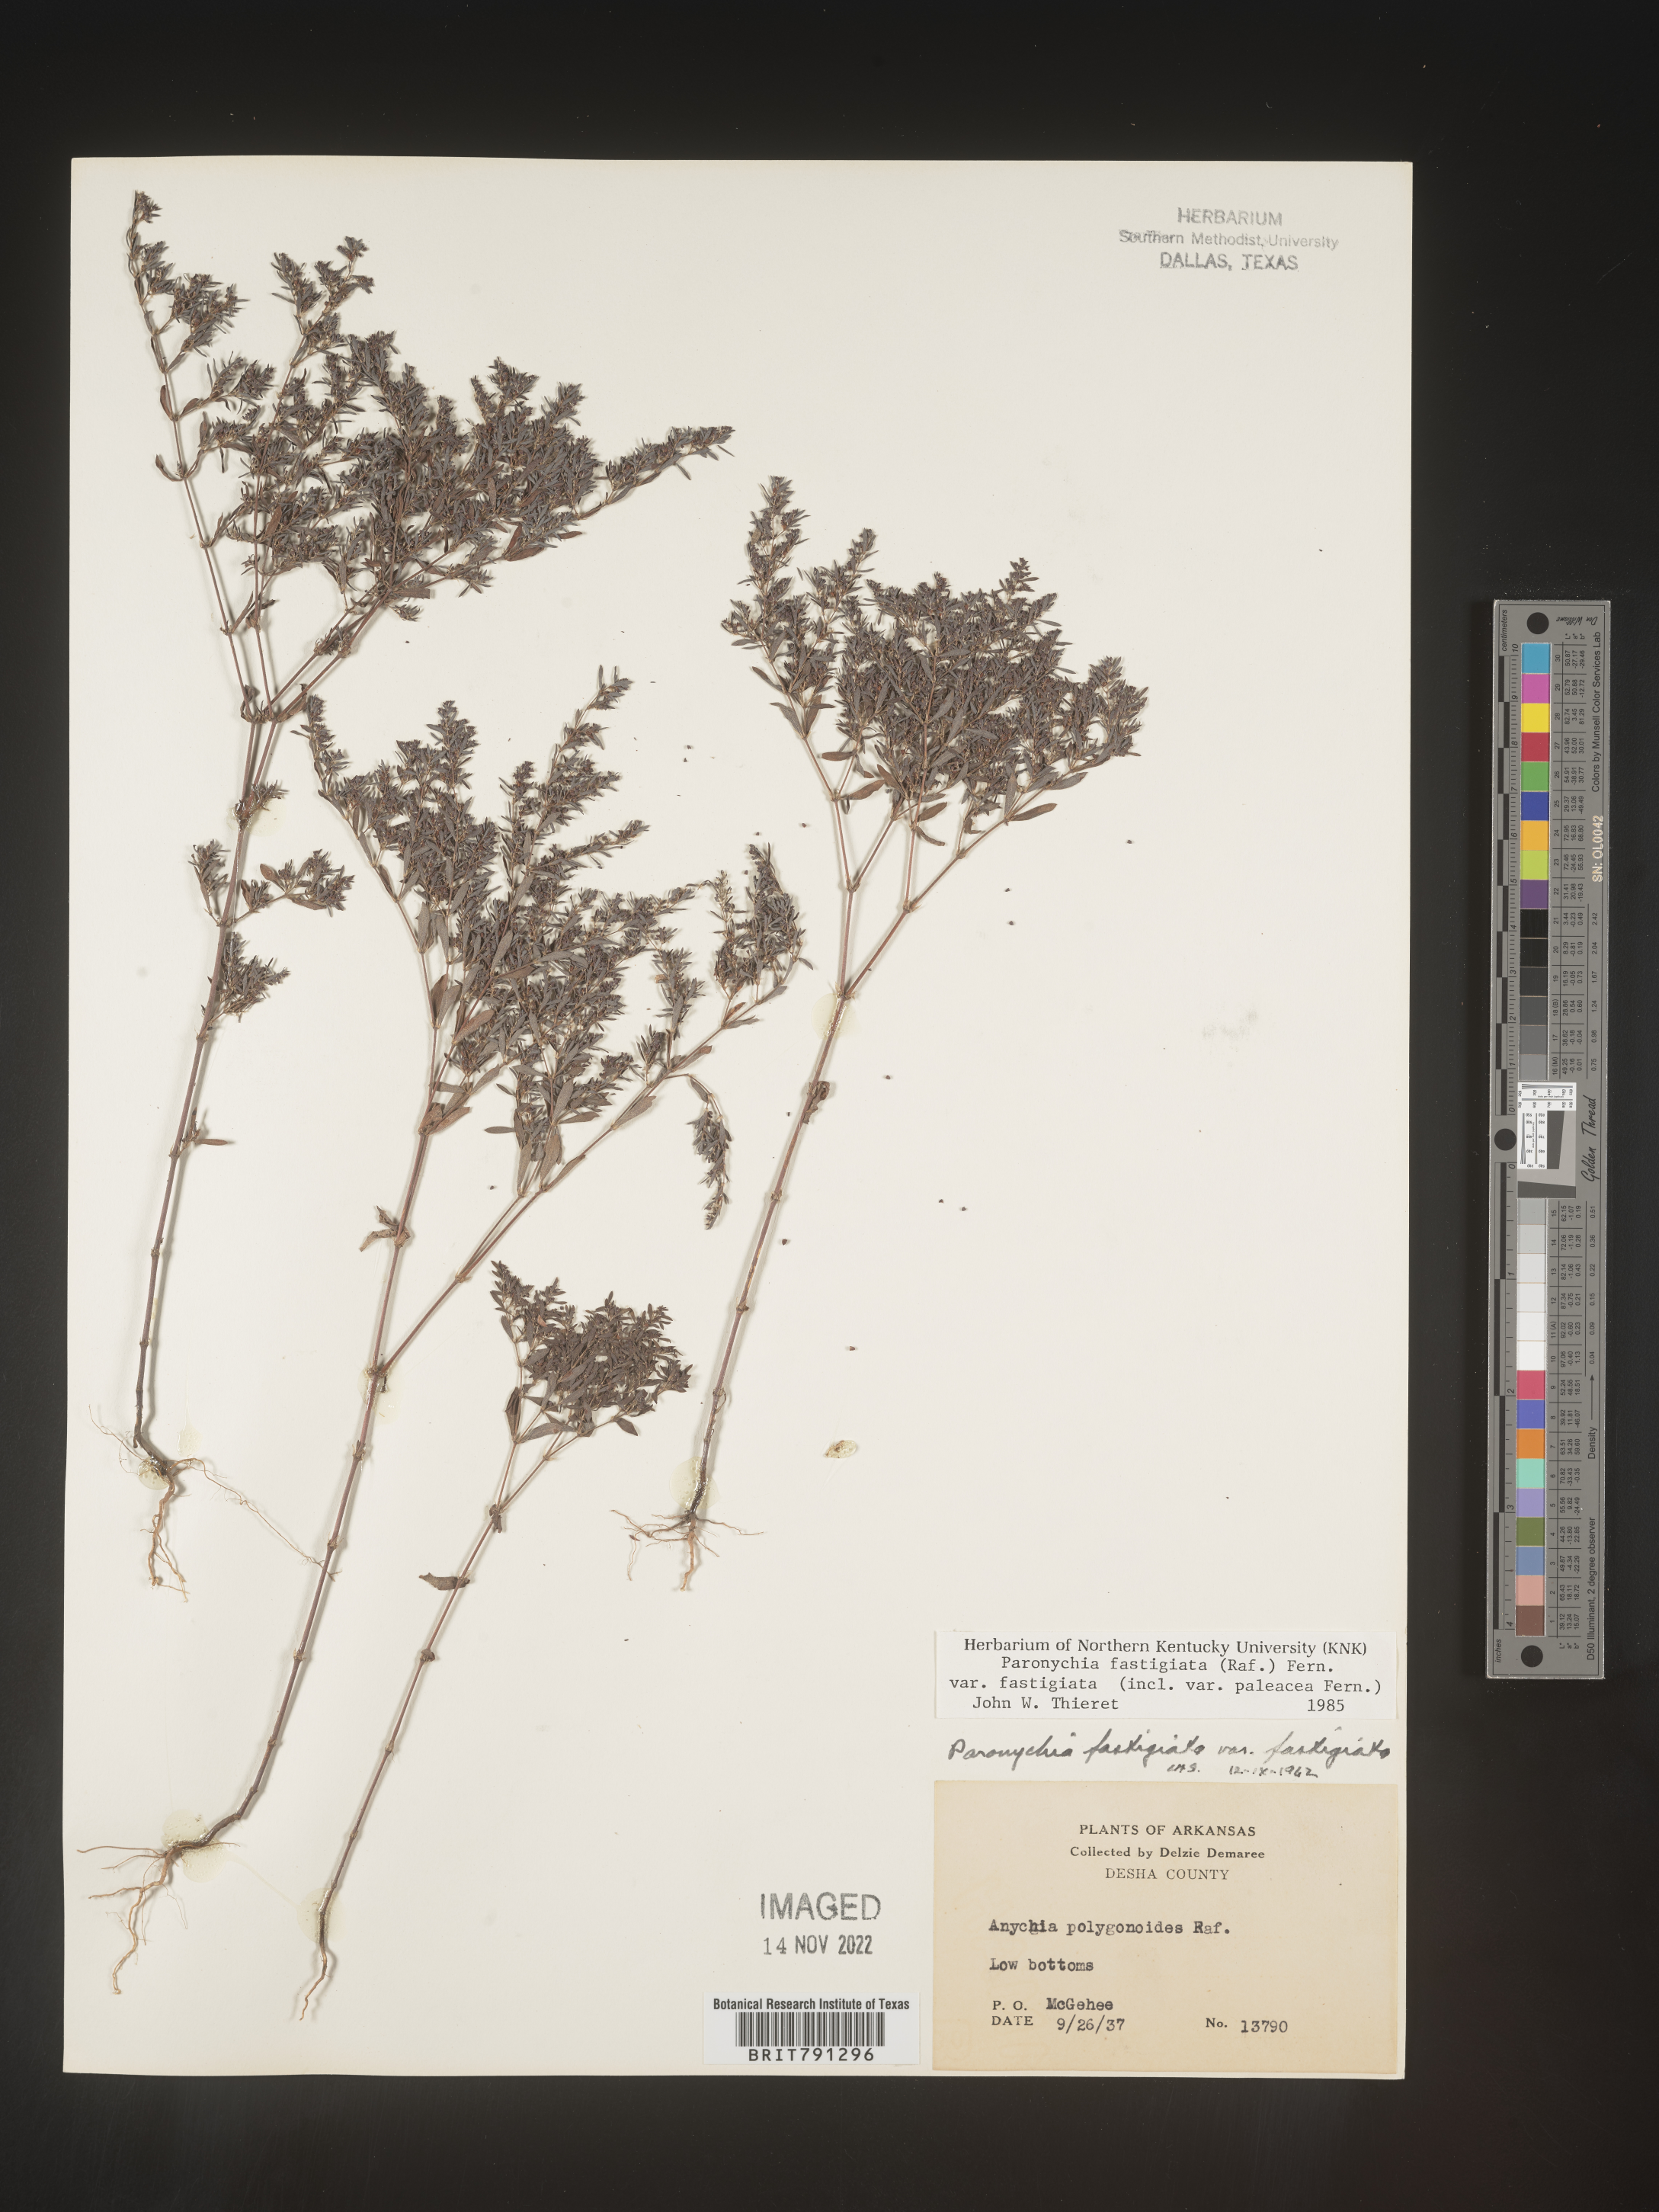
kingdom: Plantae
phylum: Tracheophyta
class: Magnoliopsida
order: Caryophyllales
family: Caryophyllaceae
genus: Paronychia
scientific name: Paronychia fastigiata
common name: Branching forked whitlow-wort
